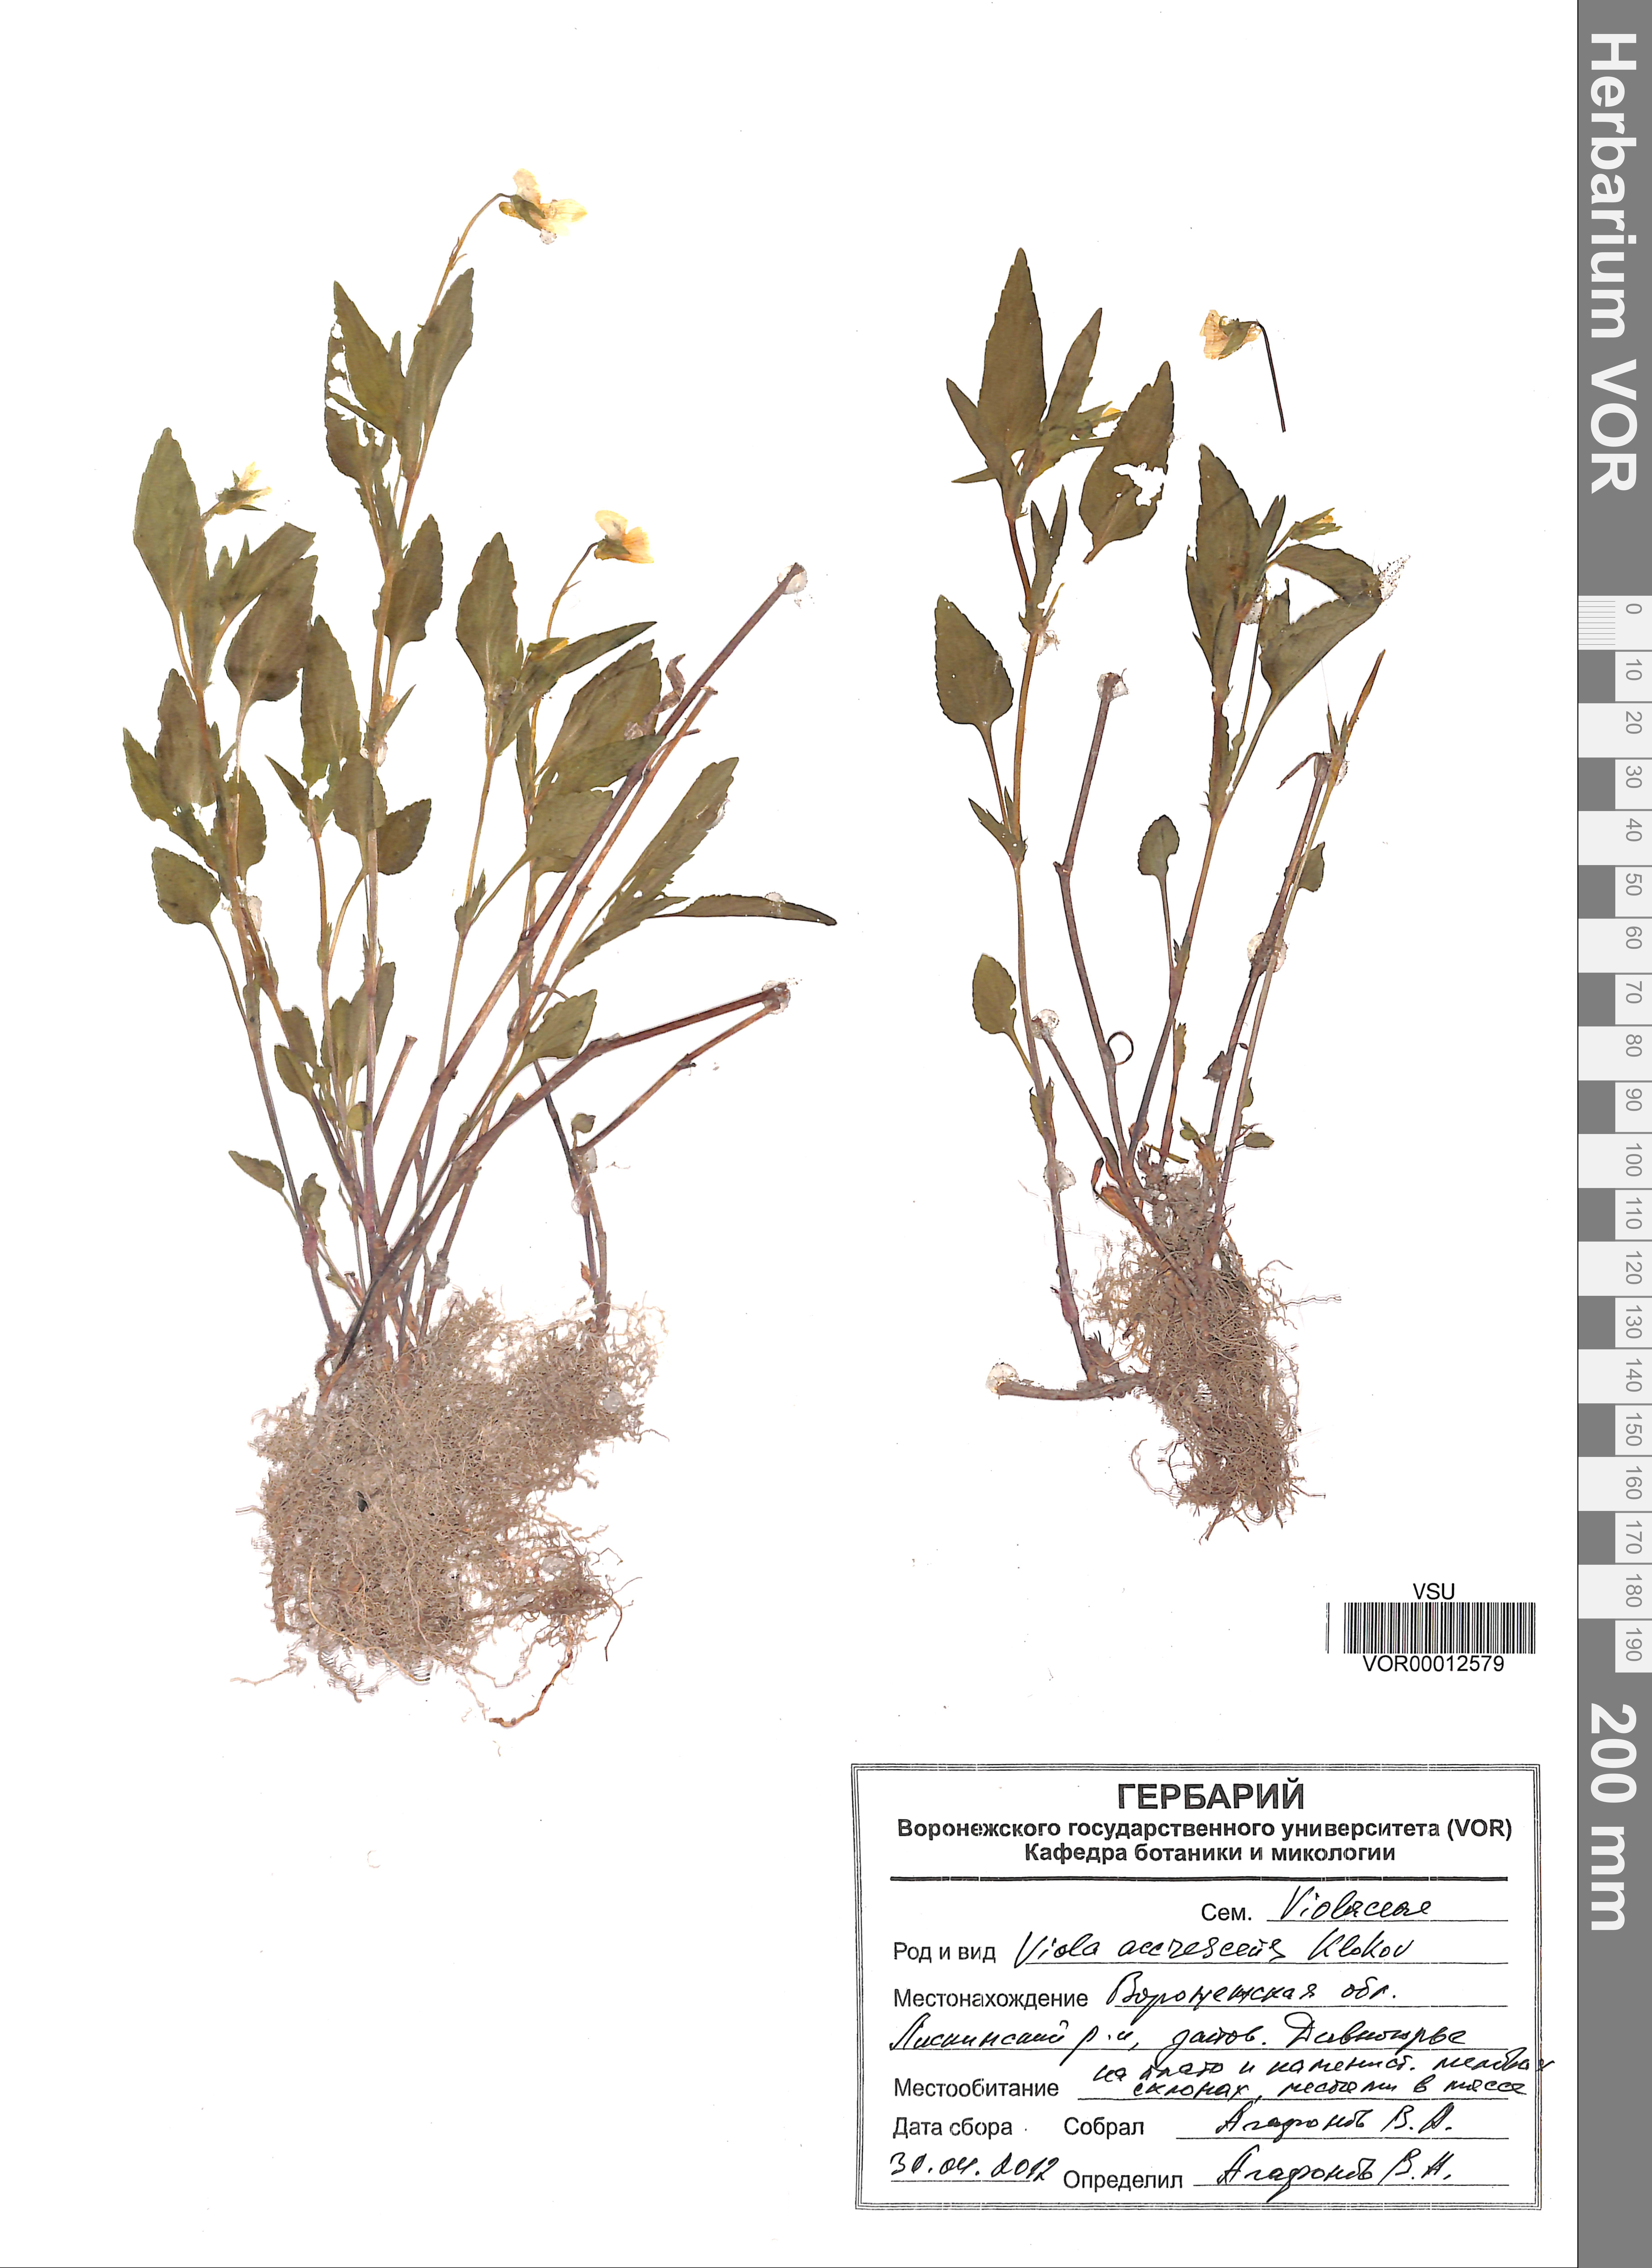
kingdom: Plantae
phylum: Tracheophyta
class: Magnoliopsida
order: Malpighiales
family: Violaceae
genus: Viola
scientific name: Viola pumila
